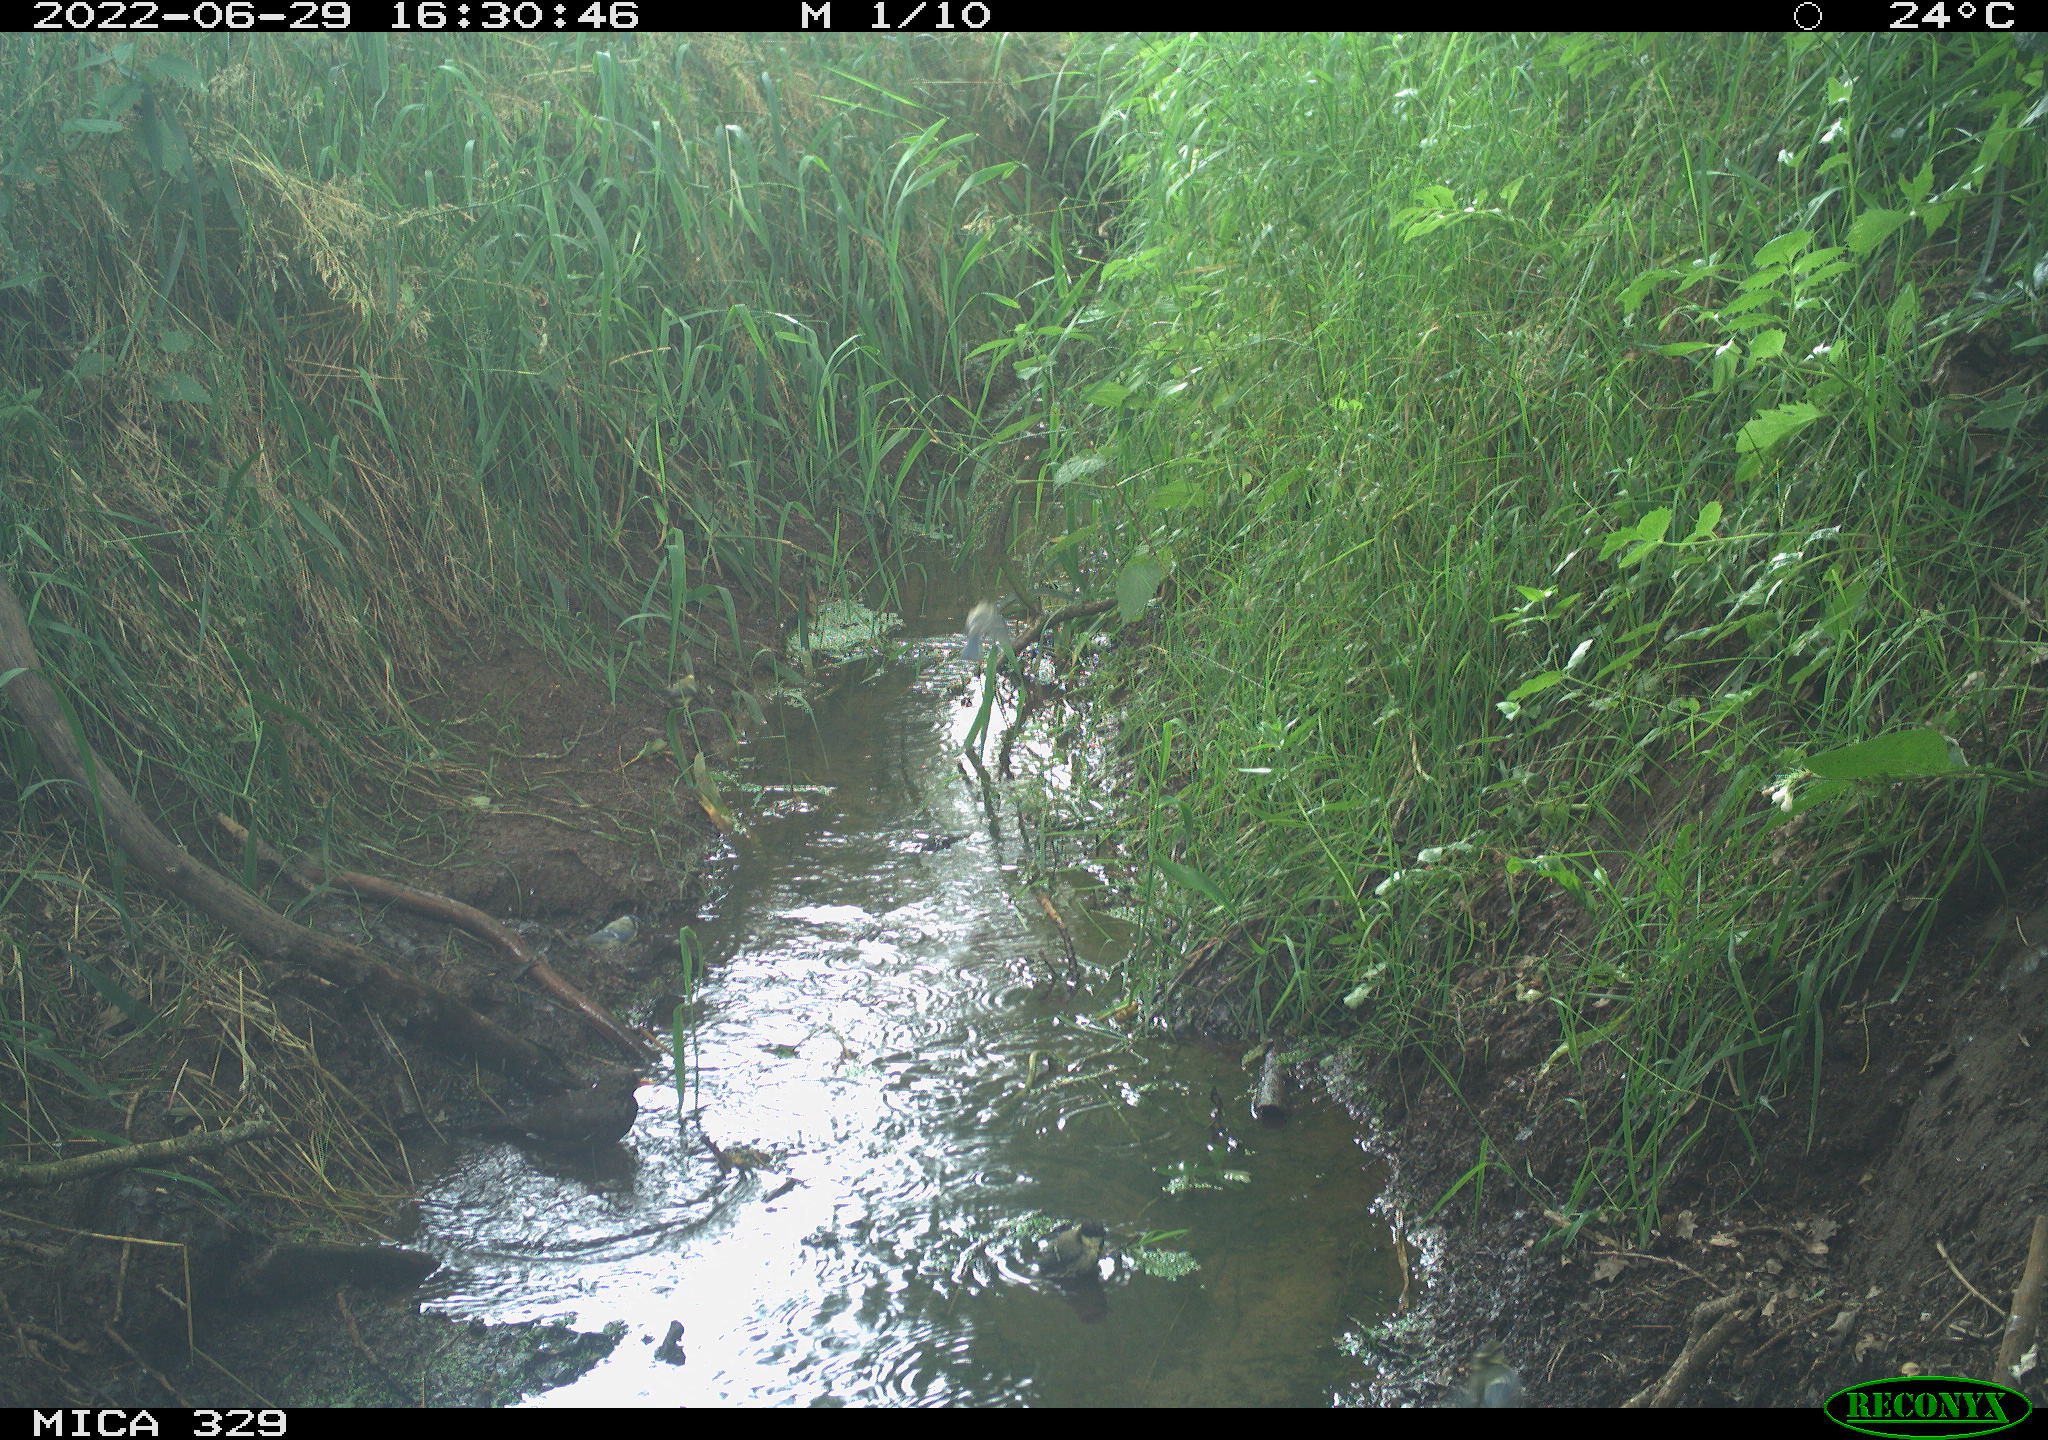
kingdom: Animalia
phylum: Chordata
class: Aves
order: Passeriformes
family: Turdidae
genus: Turdus
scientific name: Turdus merula
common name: Common blackbird
